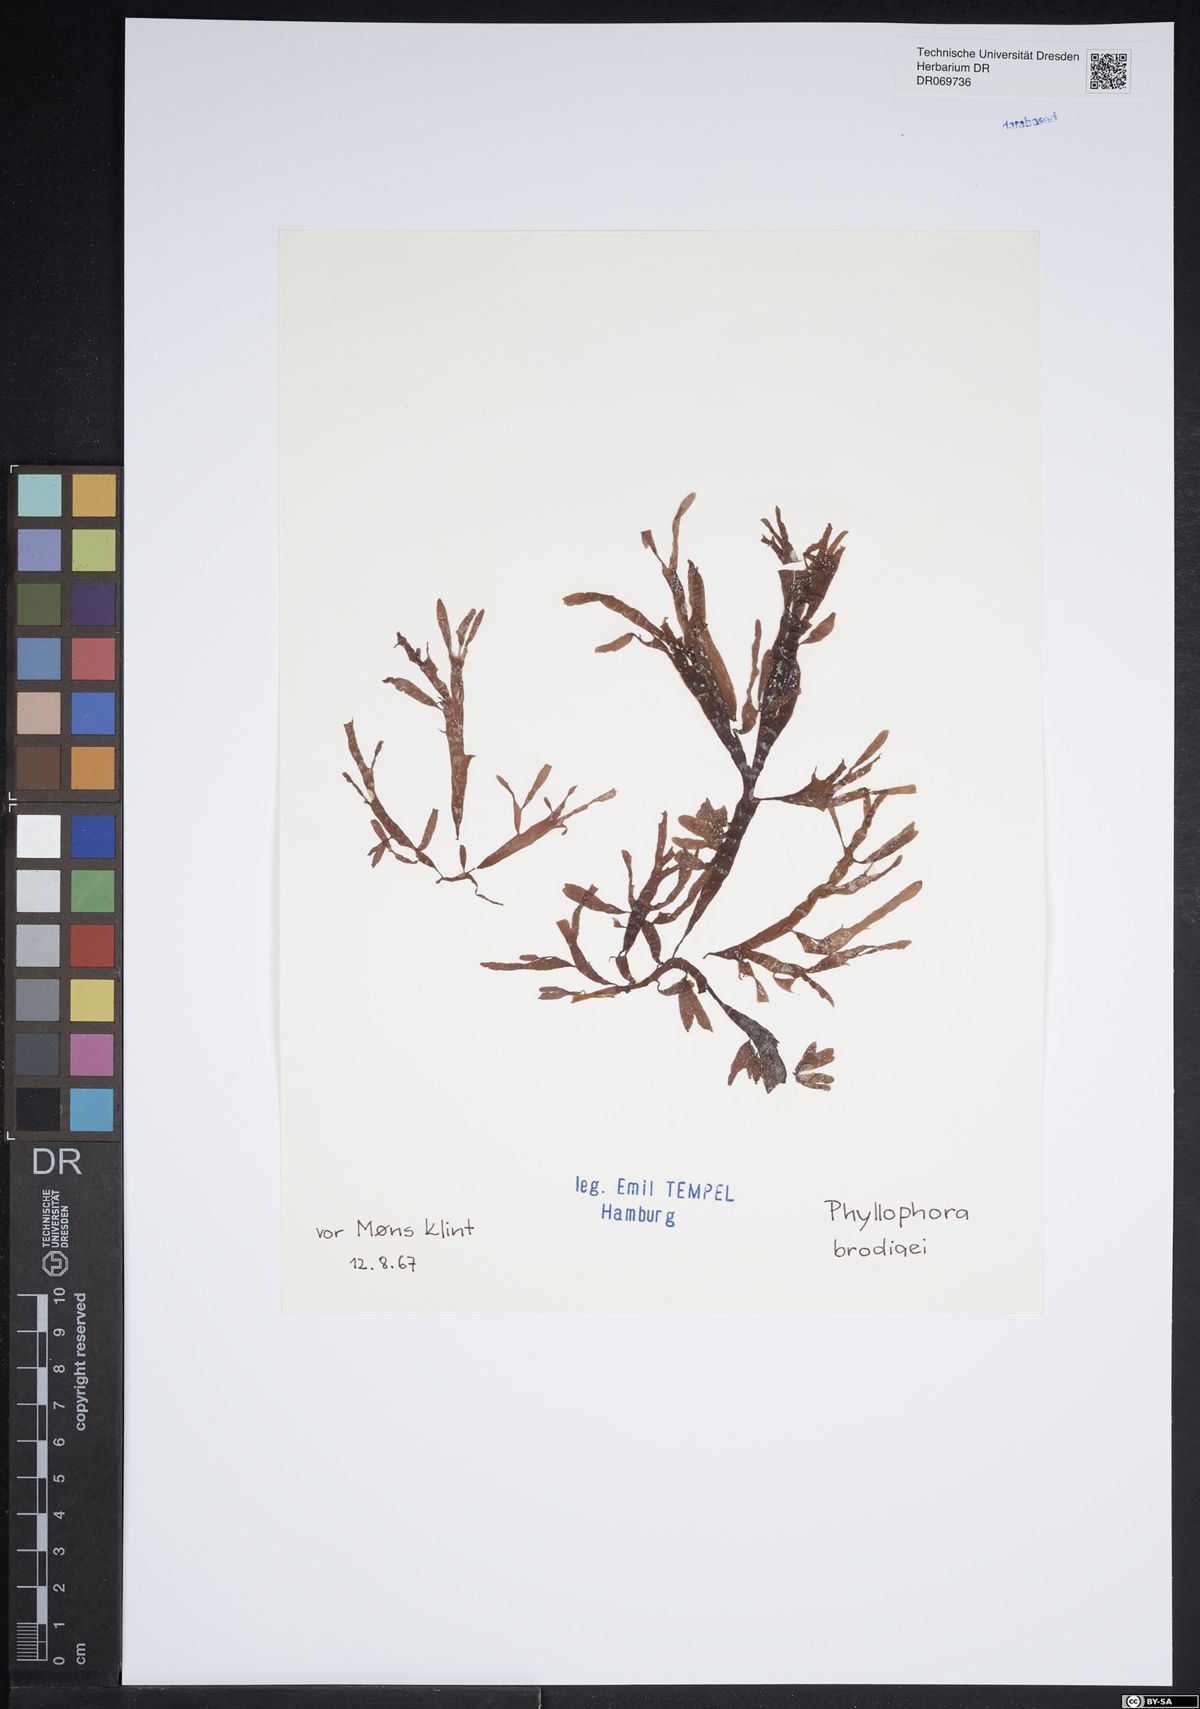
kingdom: Plantae
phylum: Rhodophyta
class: Florideophyceae
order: Gigartinales
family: Phyllophoraceae
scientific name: Phyllophoraceae
